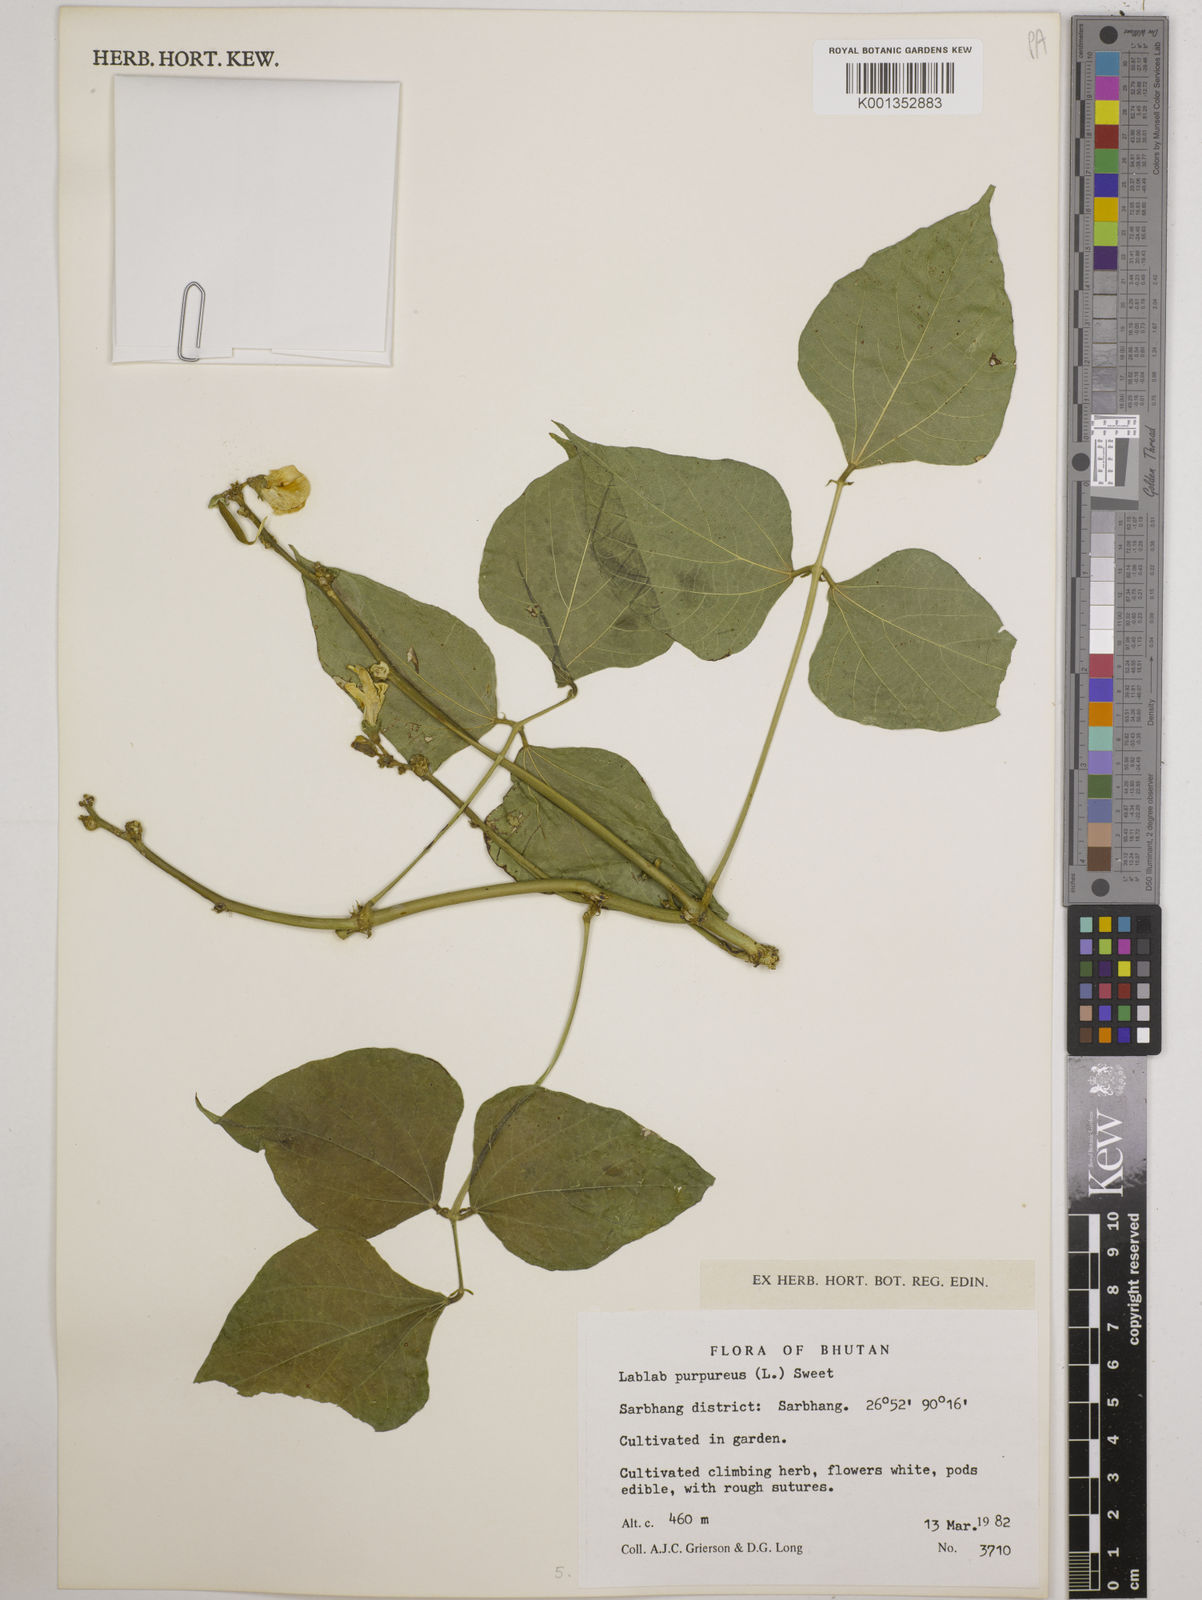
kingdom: Plantae
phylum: Tracheophyta
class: Magnoliopsida
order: Fabales
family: Fabaceae
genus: Lablab
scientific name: Lablab purpureus
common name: Lablab-bean
